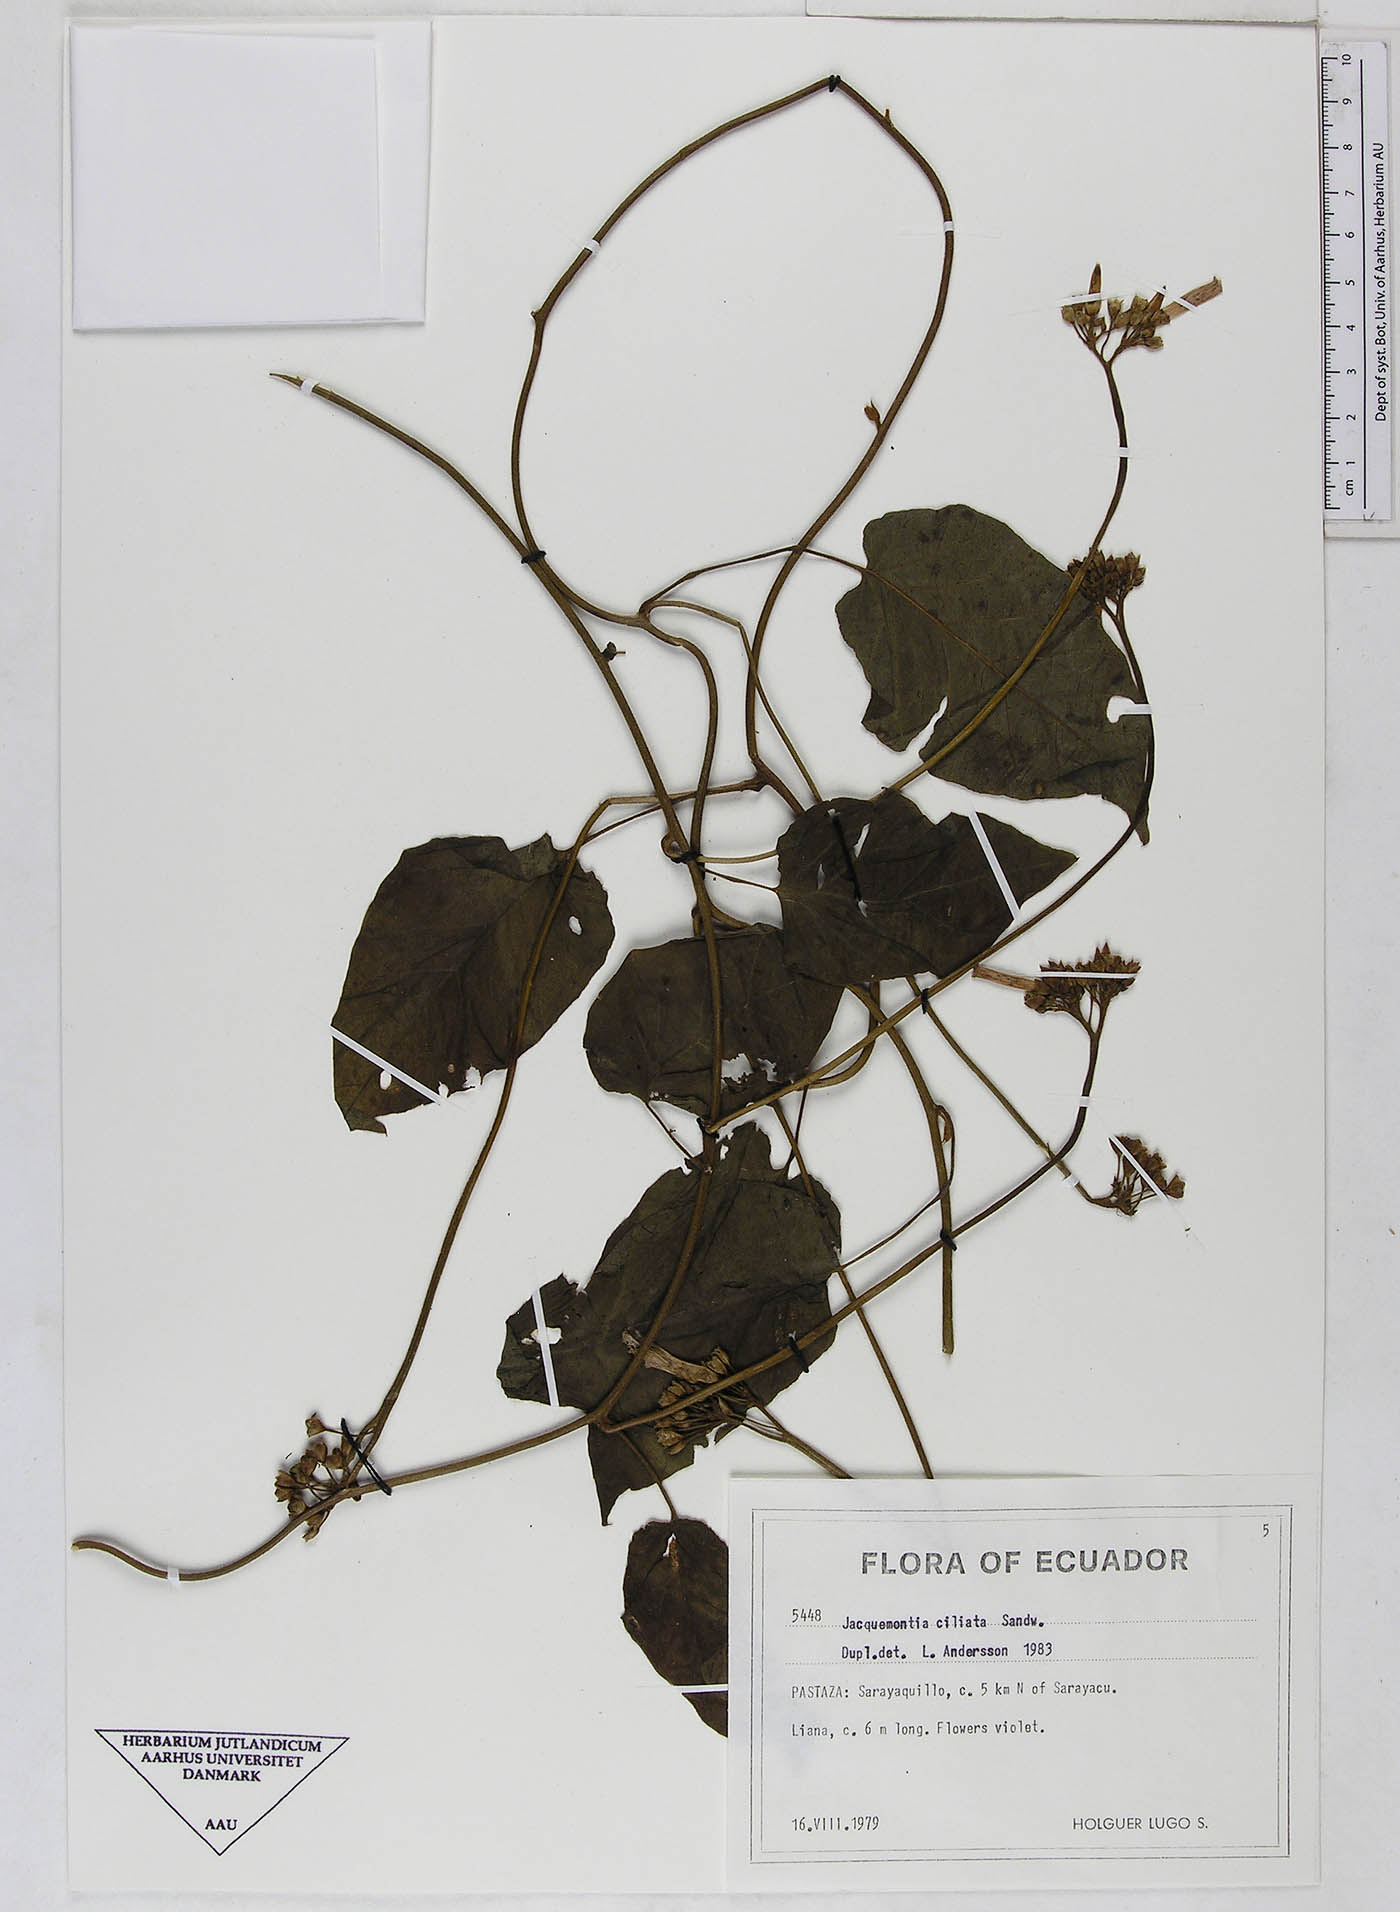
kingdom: Plantae
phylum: Tracheophyta
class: Magnoliopsida
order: Solanales
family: Convolvulaceae
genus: Jacquemontia
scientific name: Jacquemontia gabrielii
